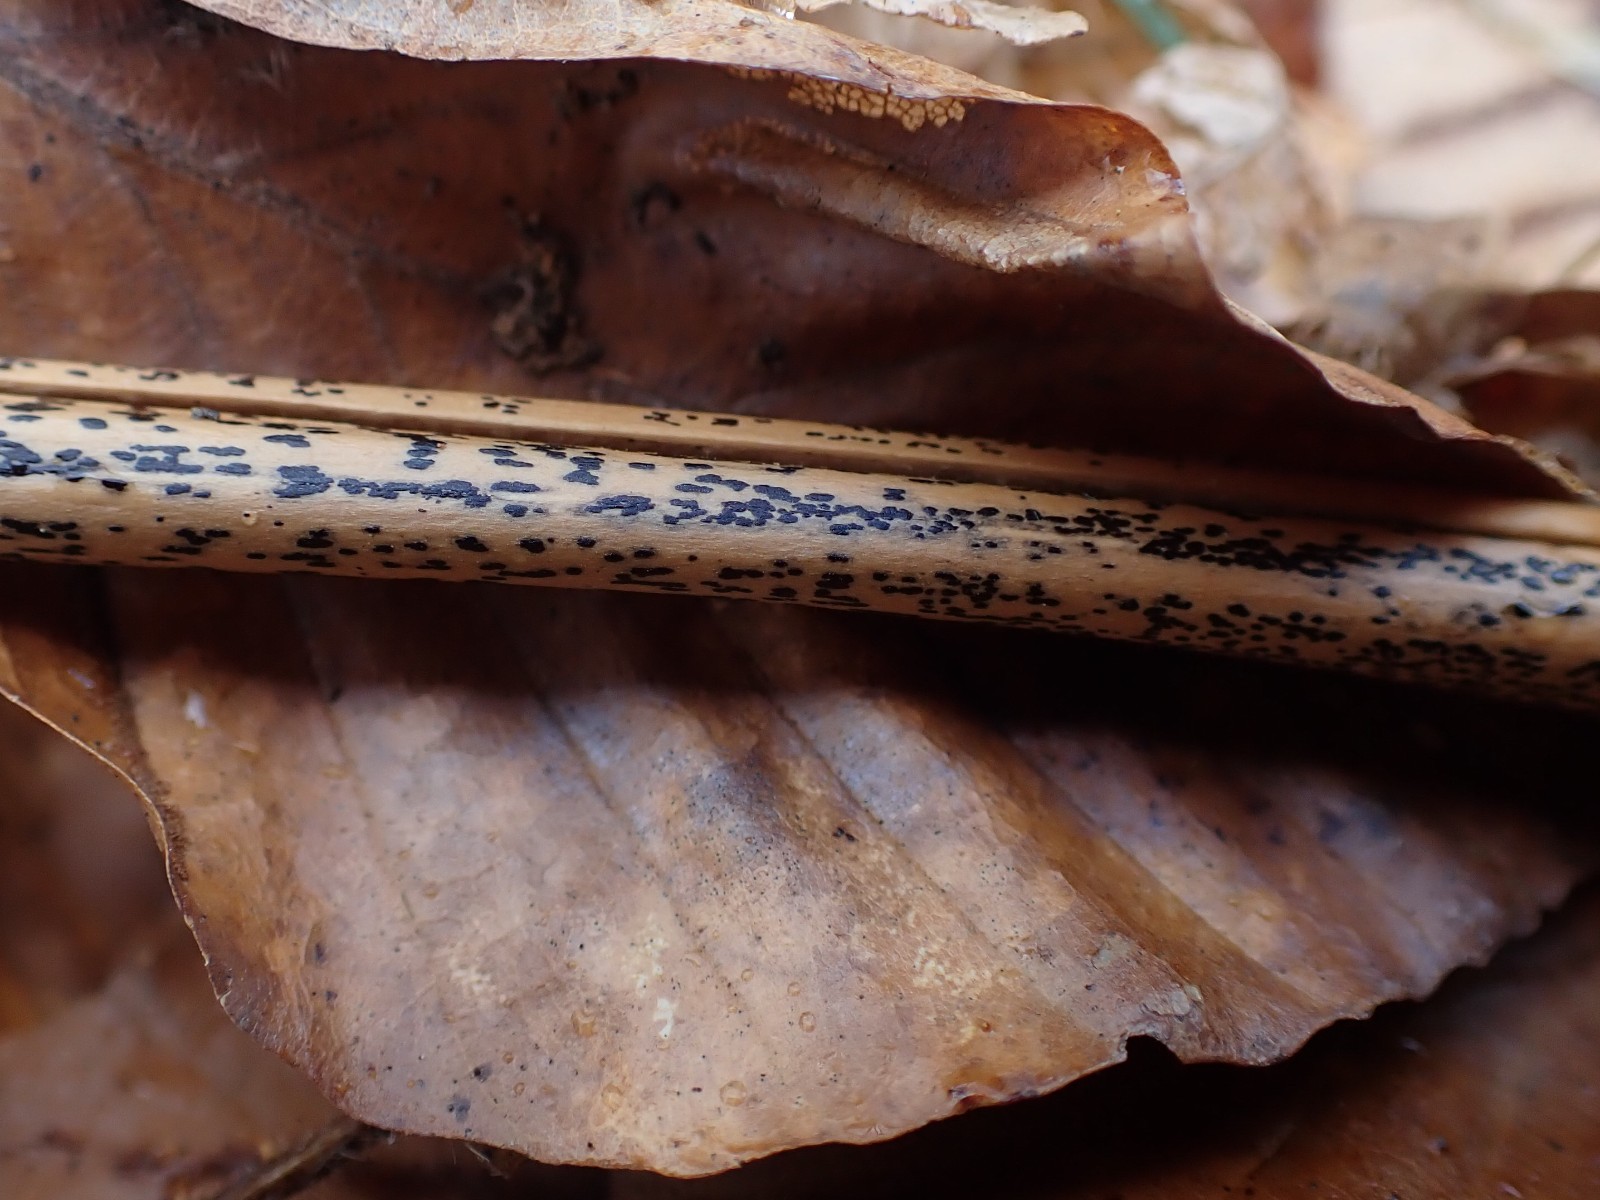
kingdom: Fungi
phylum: Ascomycota
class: Dothideomycetes
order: Pleosporales
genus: Rhopographus
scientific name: Rhopographus filicinus
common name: Bracken map
